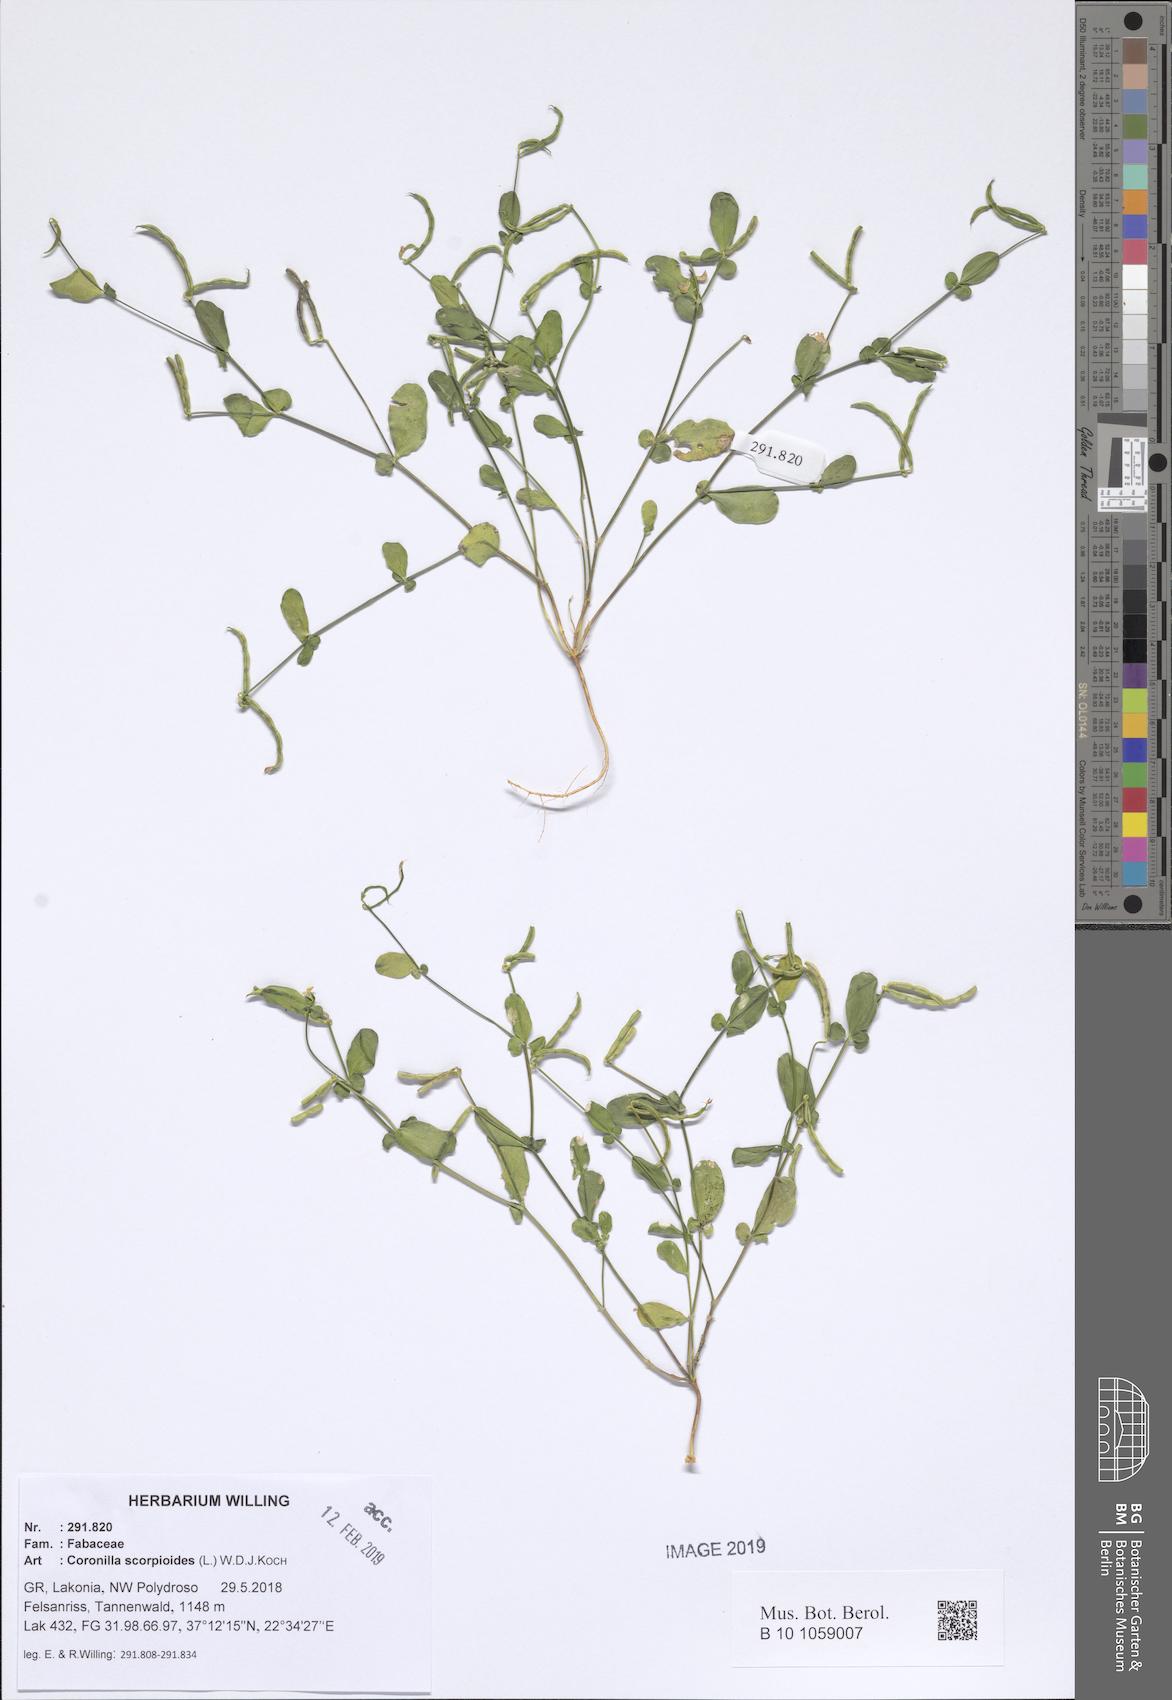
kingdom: Plantae
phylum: Tracheophyta
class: Magnoliopsida
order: Fabales
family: Fabaceae
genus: Coronilla
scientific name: Coronilla scorpioides
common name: Annual scorpion-vetch
